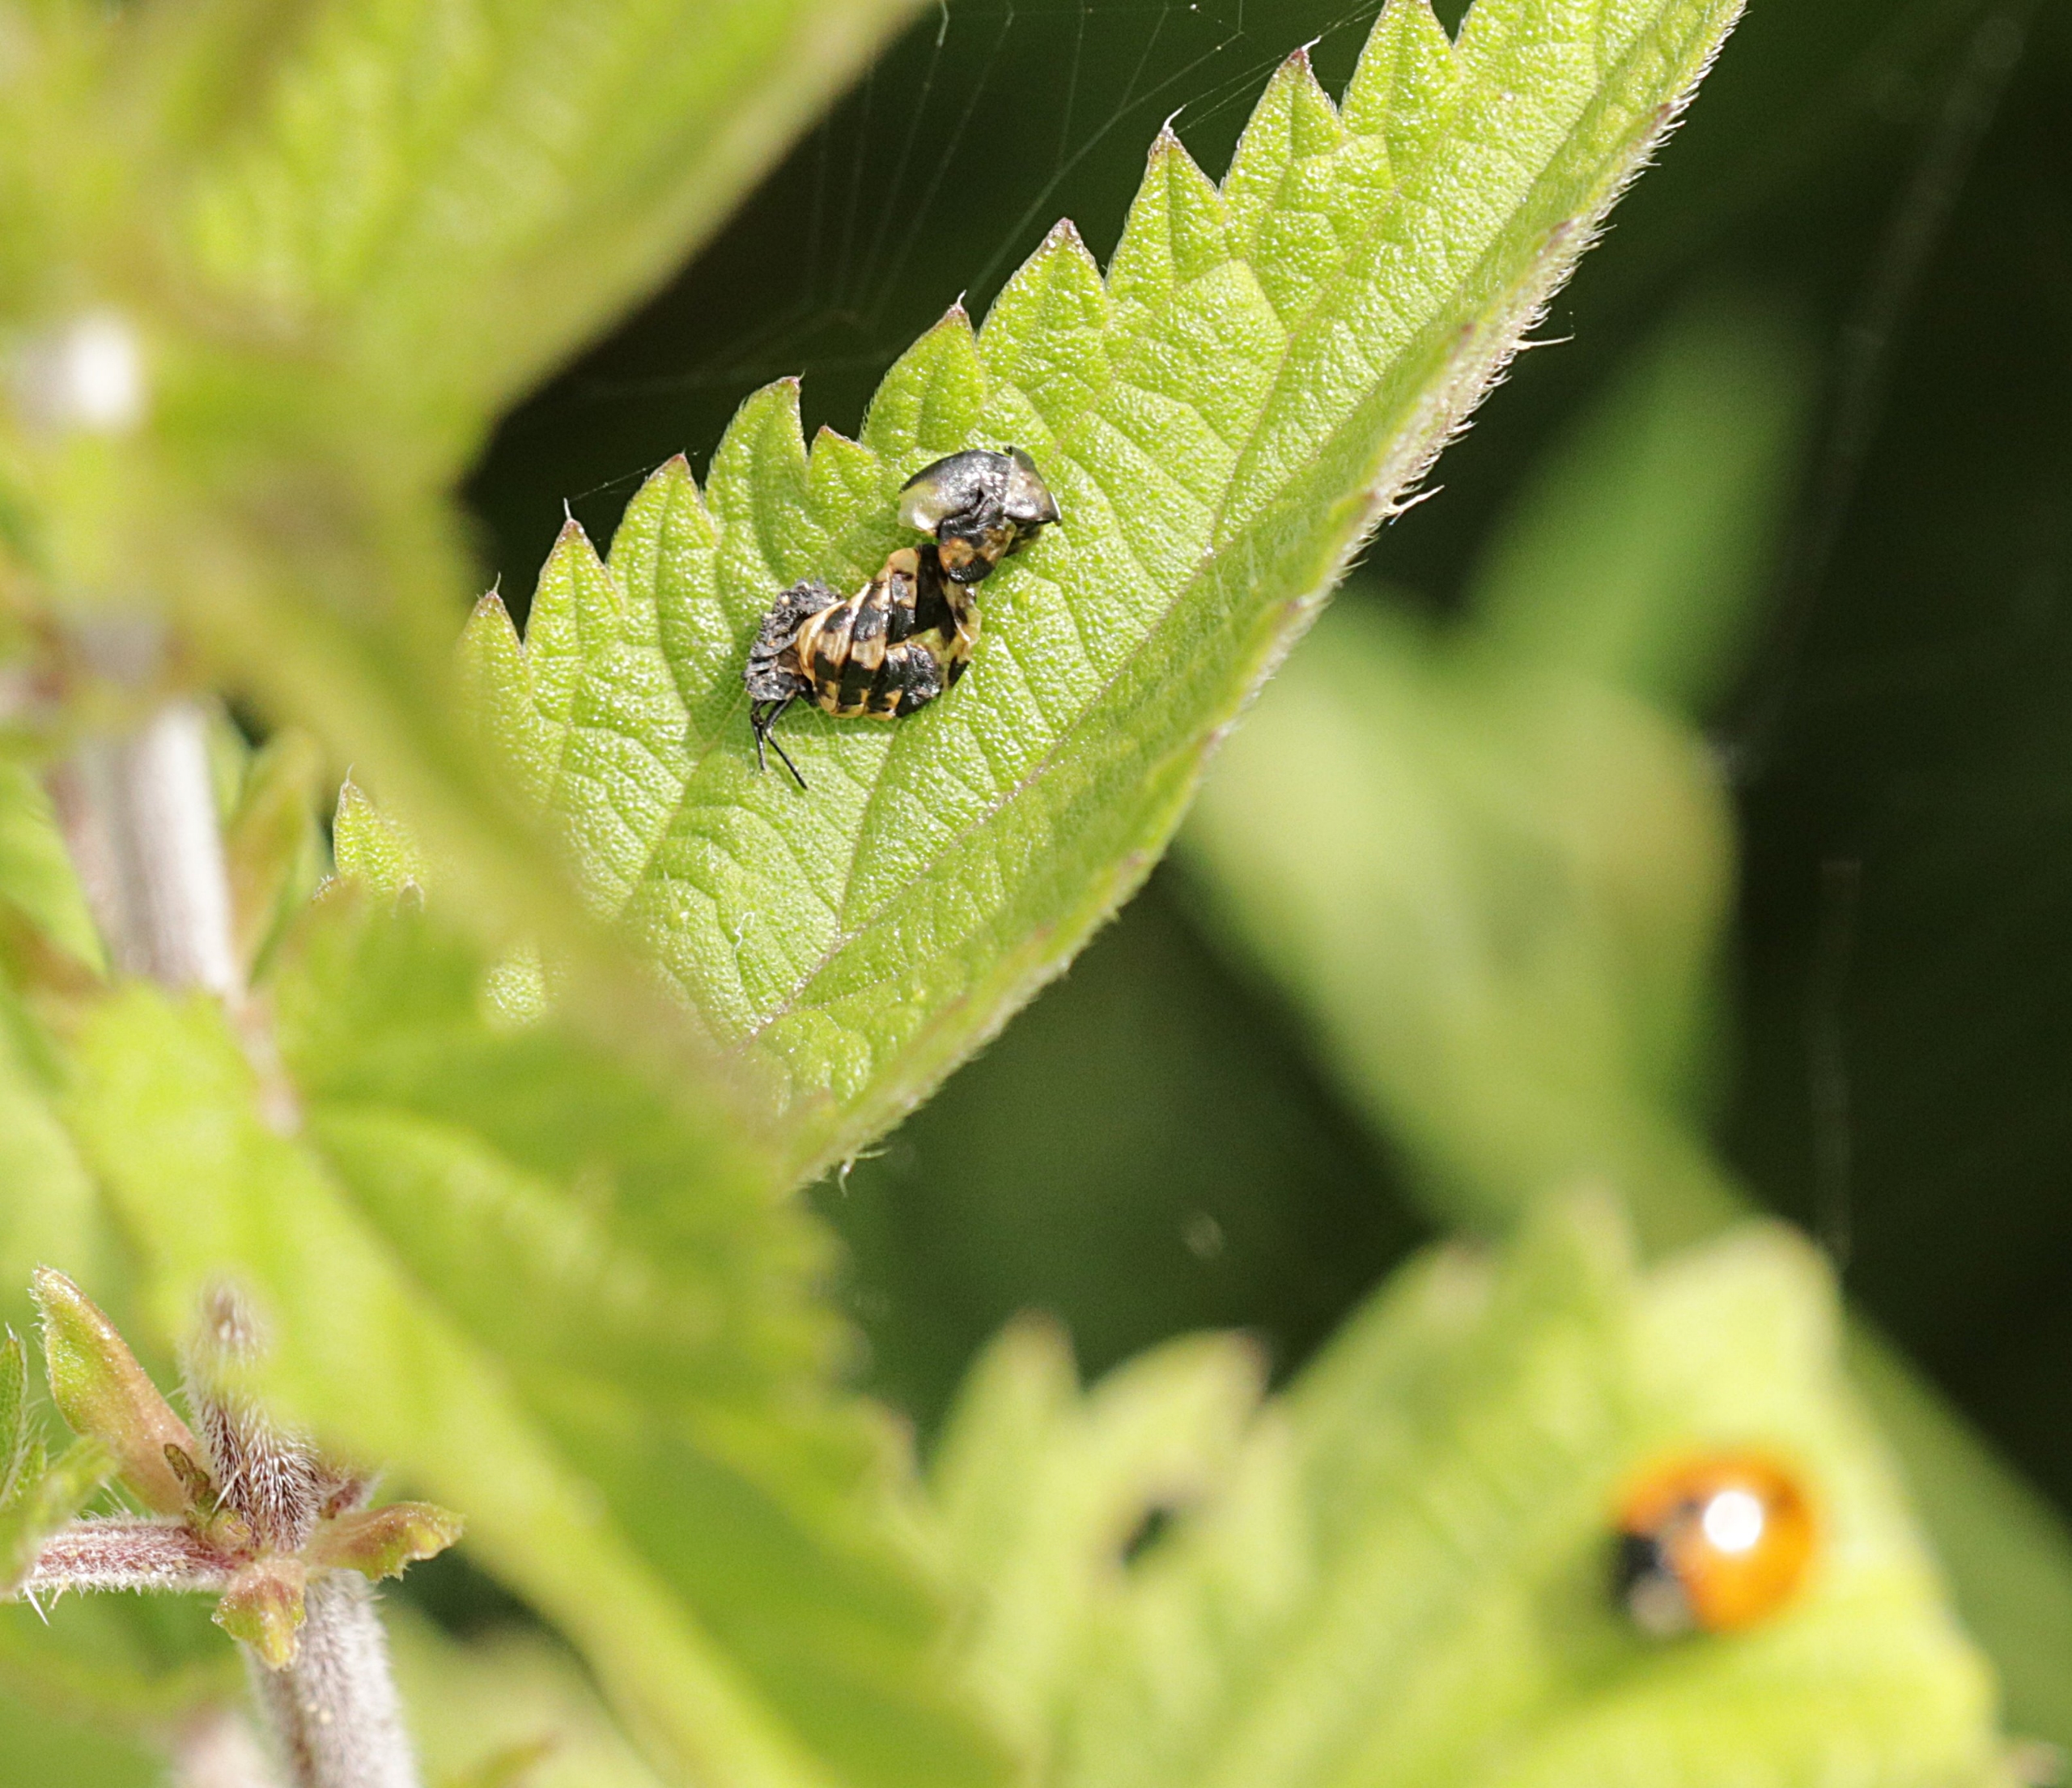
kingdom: Animalia
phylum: Arthropoda
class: Insecta
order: Coleoptera
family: Coccinellidae
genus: Coccinella
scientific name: Coccinella septempunctata
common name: Syvplettet mariehøne
